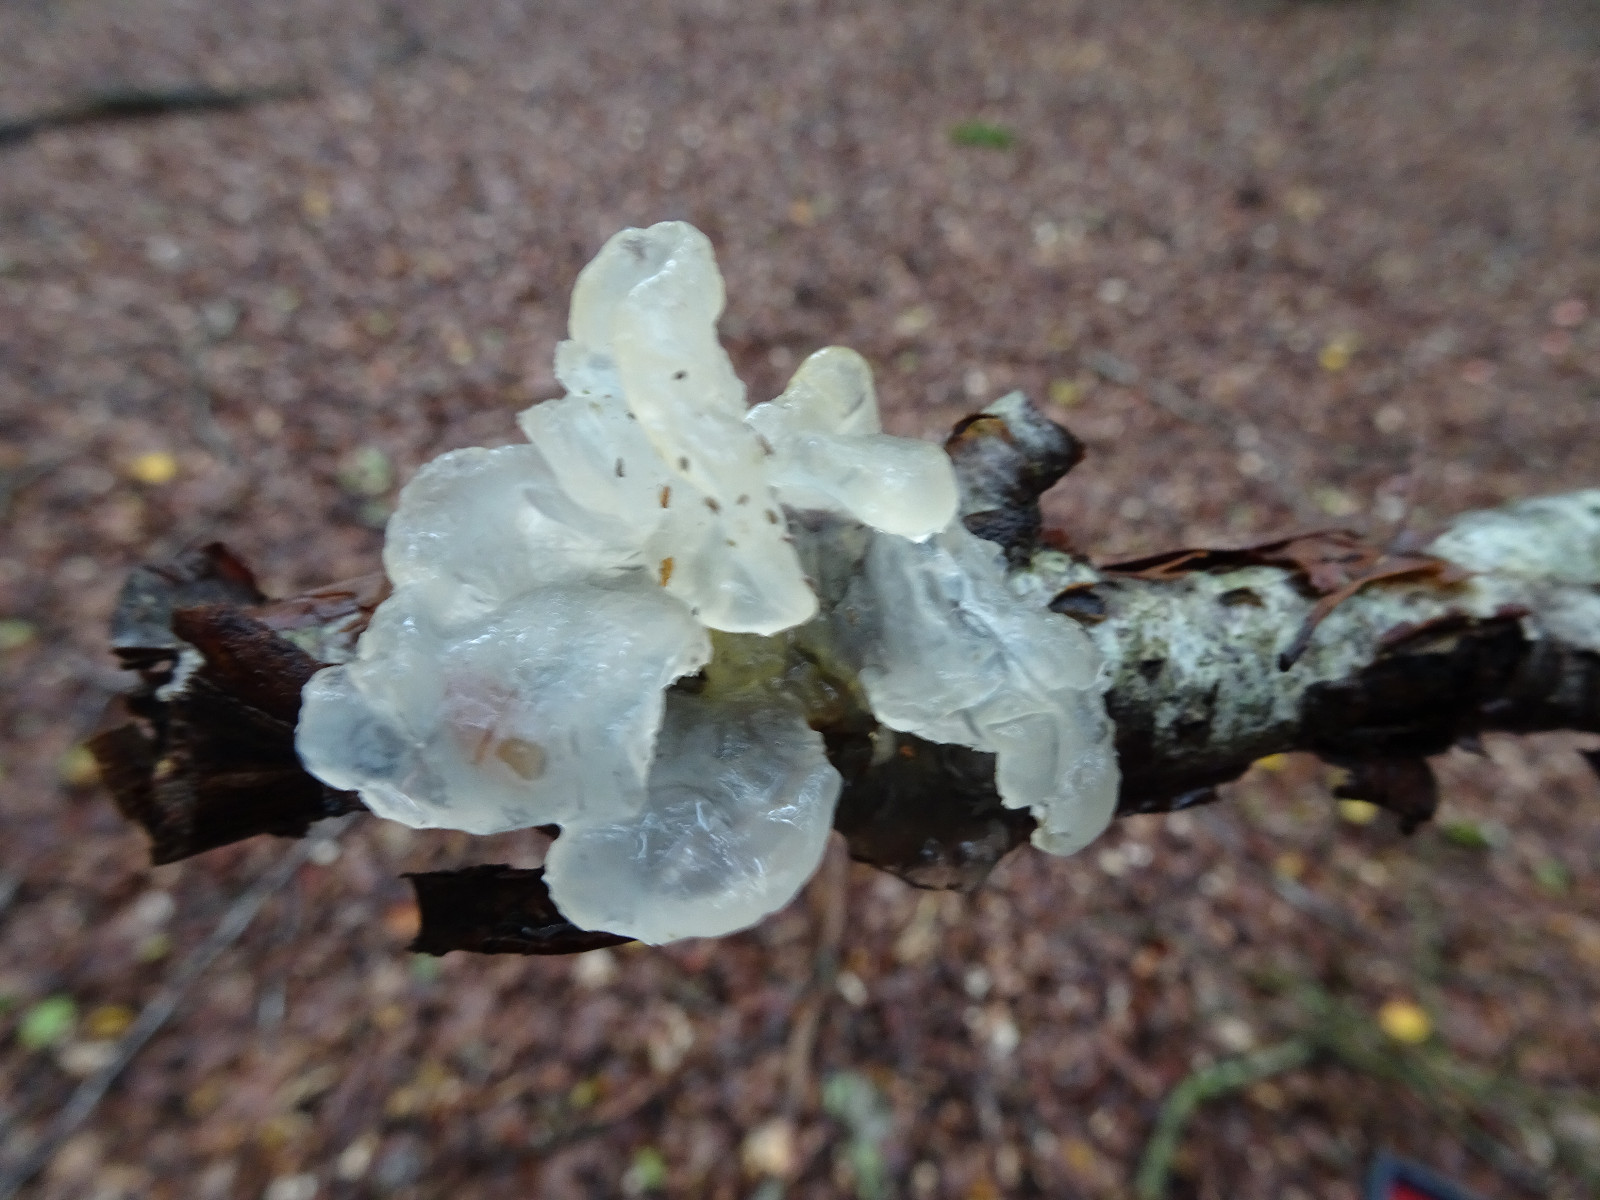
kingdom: Fungi
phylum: Basidiomycota
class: Tremellomycetes
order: Tremellales
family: Tremellaceae
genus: Tremella
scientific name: Tremella mesenterica
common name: gul bævresvamp
